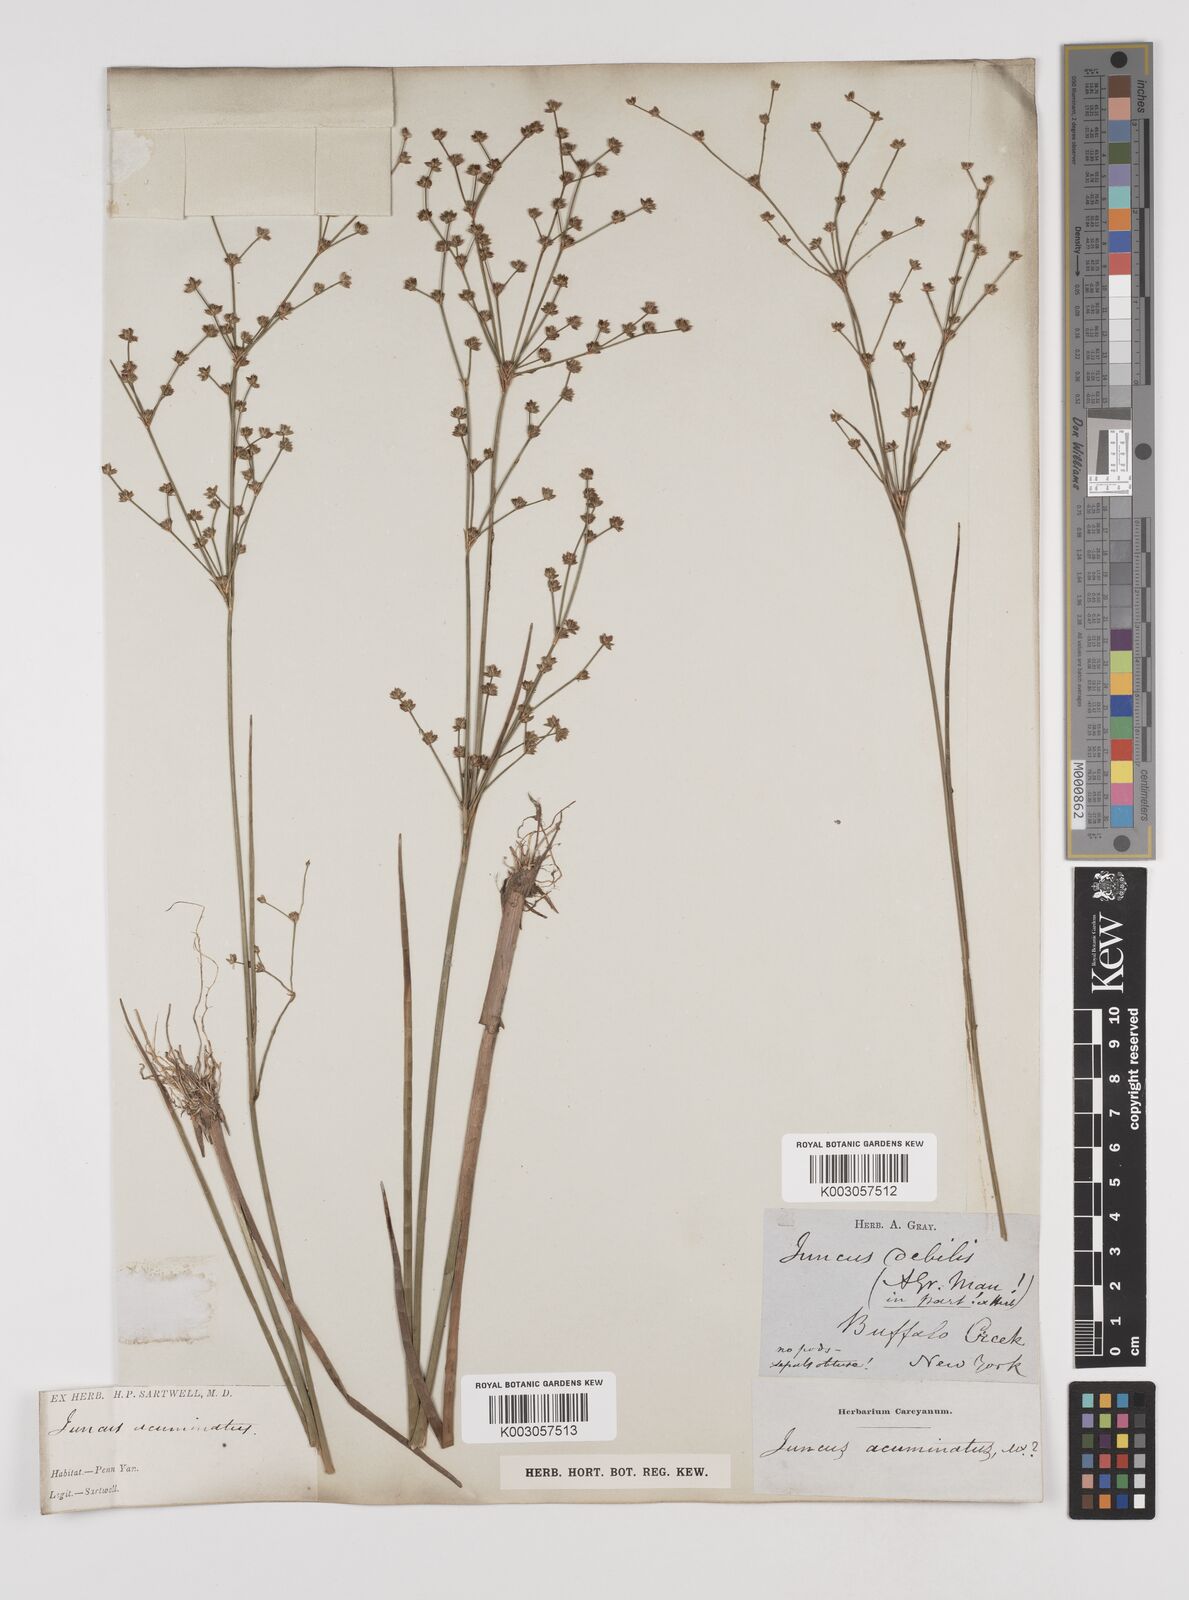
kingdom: Plantae
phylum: Tracheophyta
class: Liliopsida
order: Poales
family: Juncaceae
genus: Juncus
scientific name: Juncus debilis
